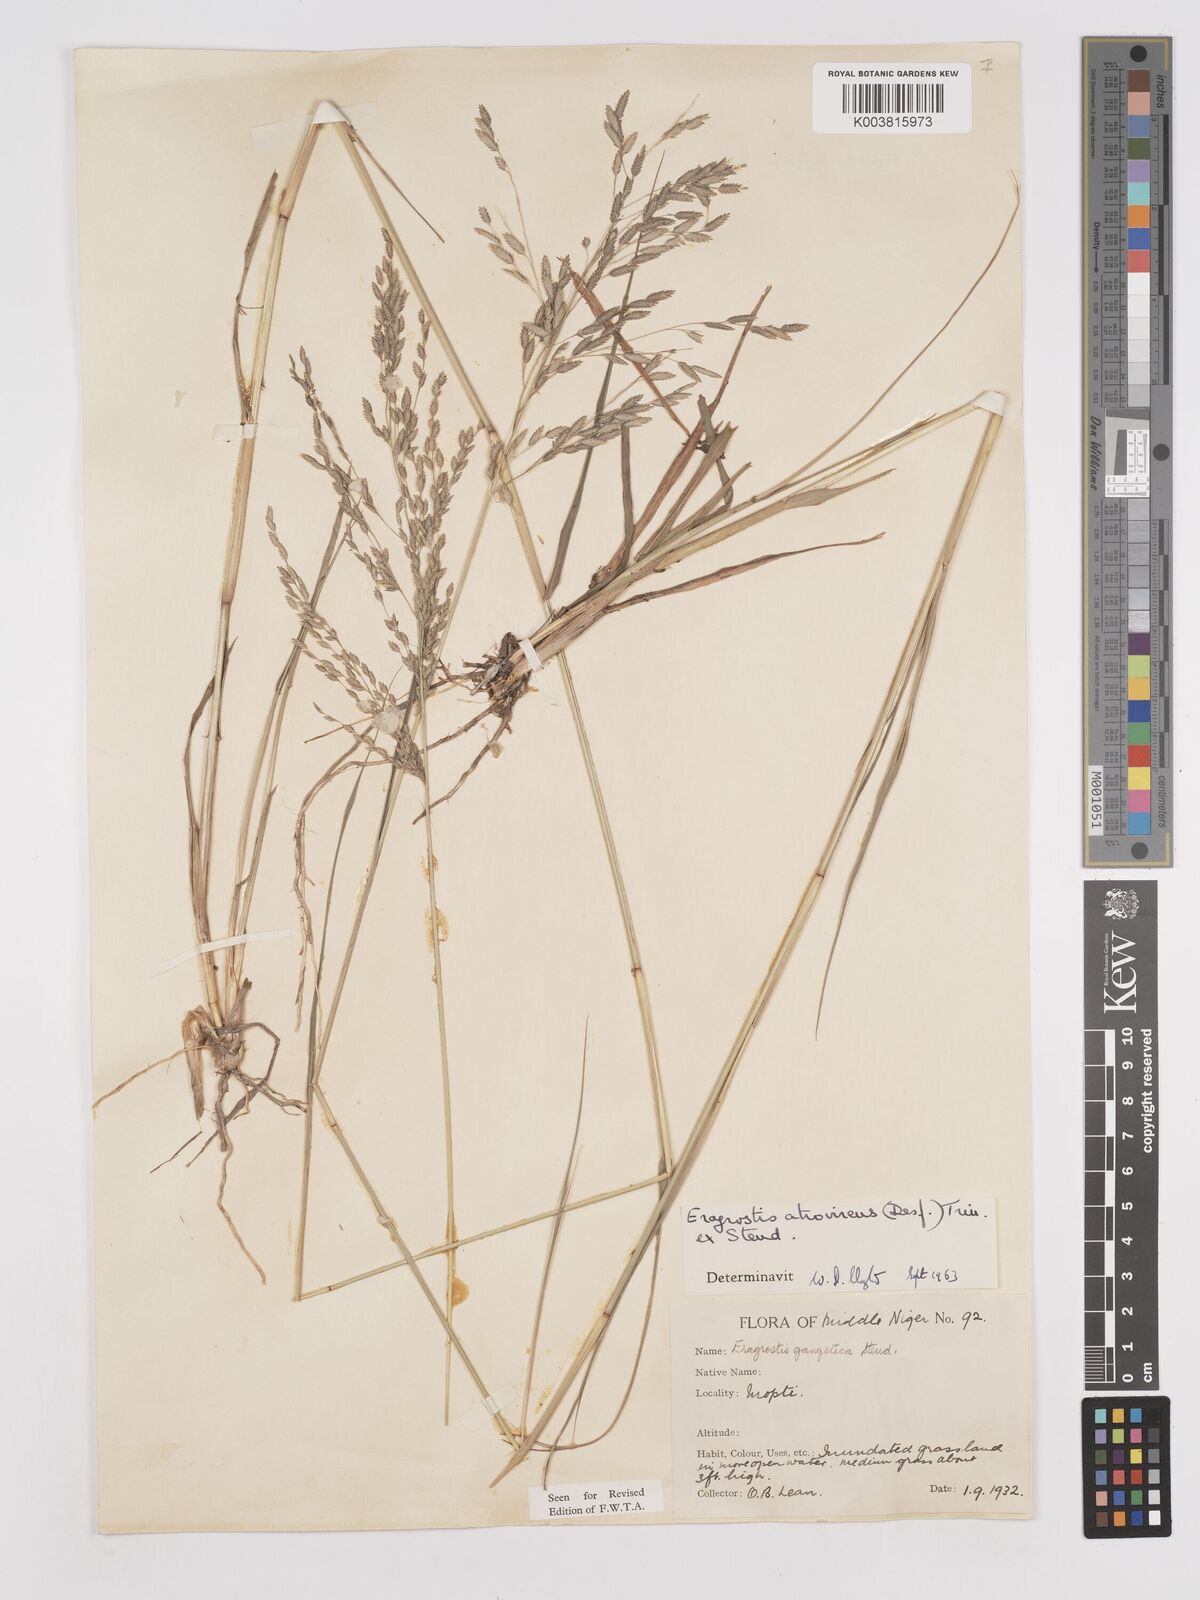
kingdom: Plantae
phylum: Tracheophyta
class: Liliopsida
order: Poales
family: Poaceae
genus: Eragrostis
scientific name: Eragrostis atrovirens
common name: Thalia lovegrass
